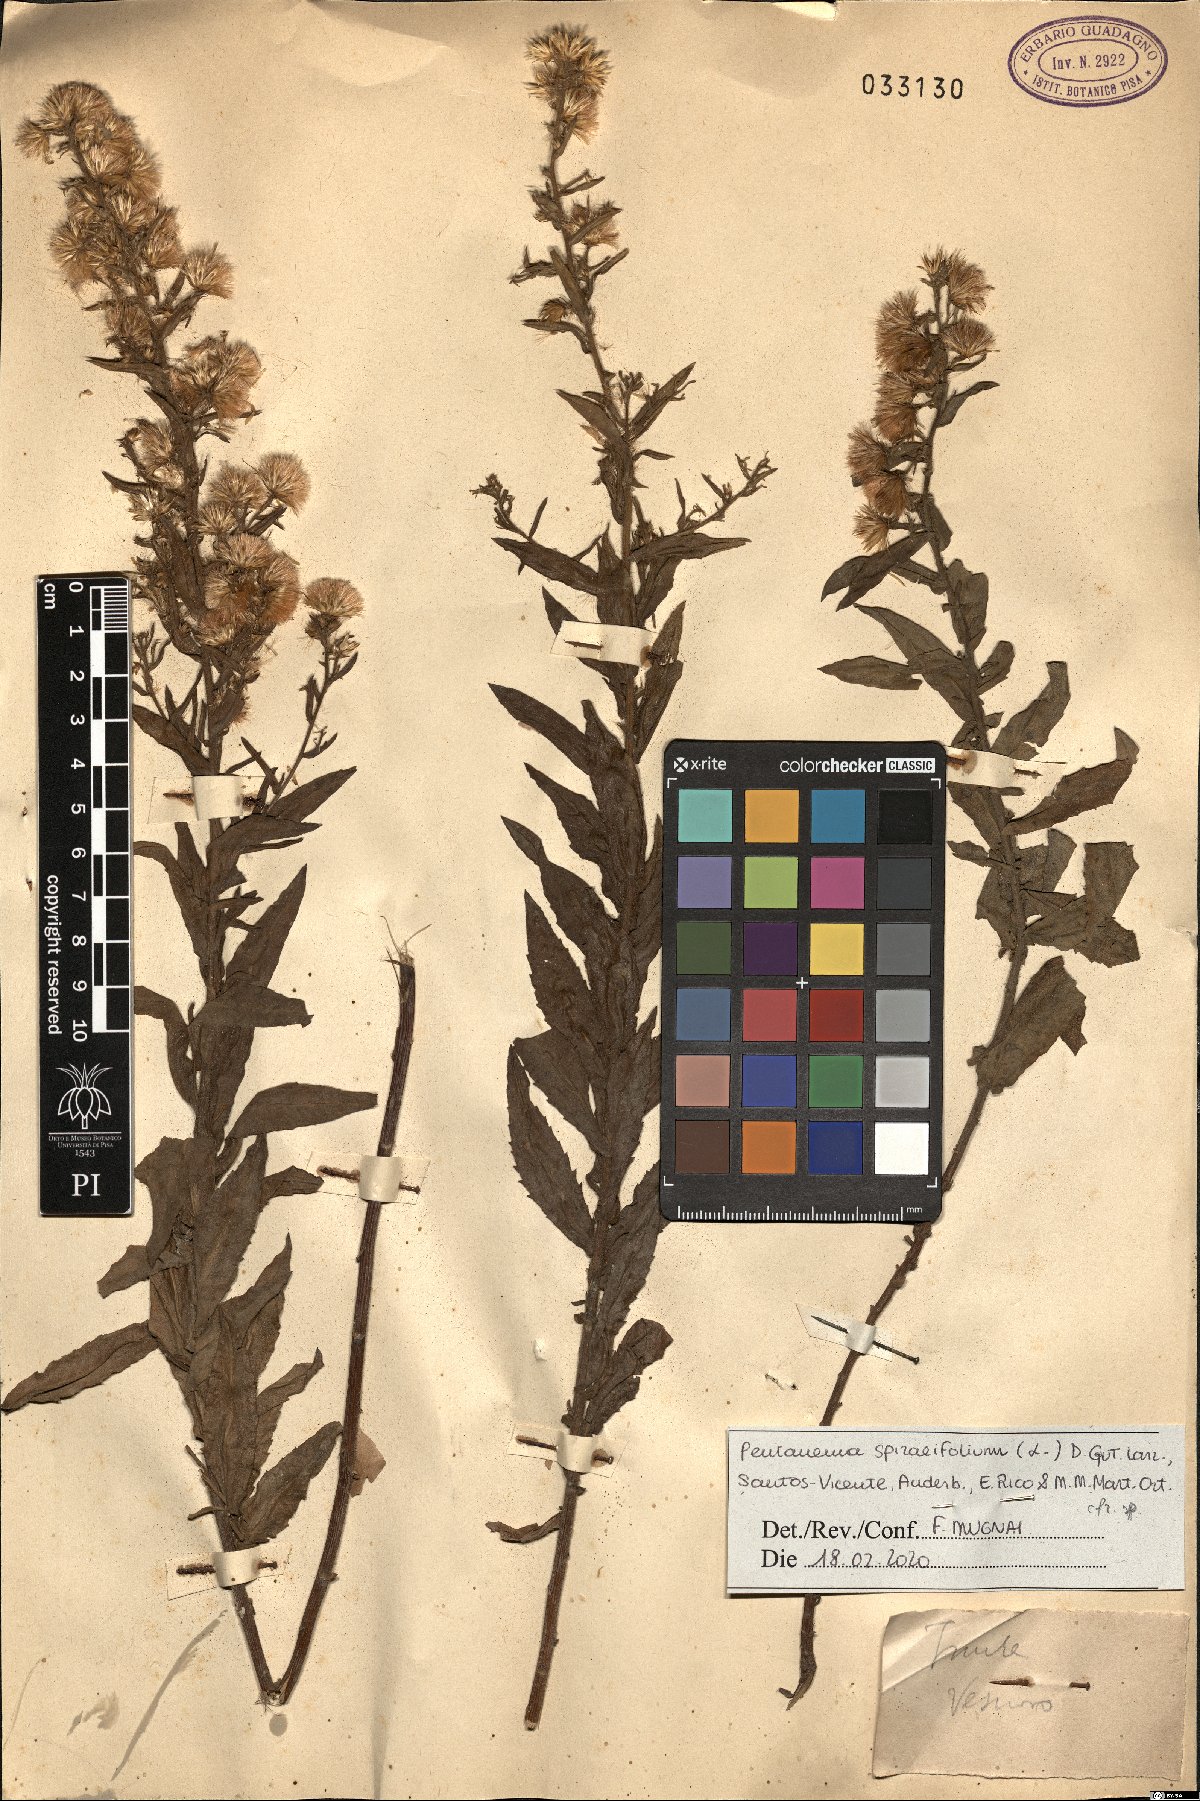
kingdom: Plantae
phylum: Tracheophyta
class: Magnoliopsida
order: Asterales
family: Asteraceae
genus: Pentanema
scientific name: Pentanema spiraeifolium
